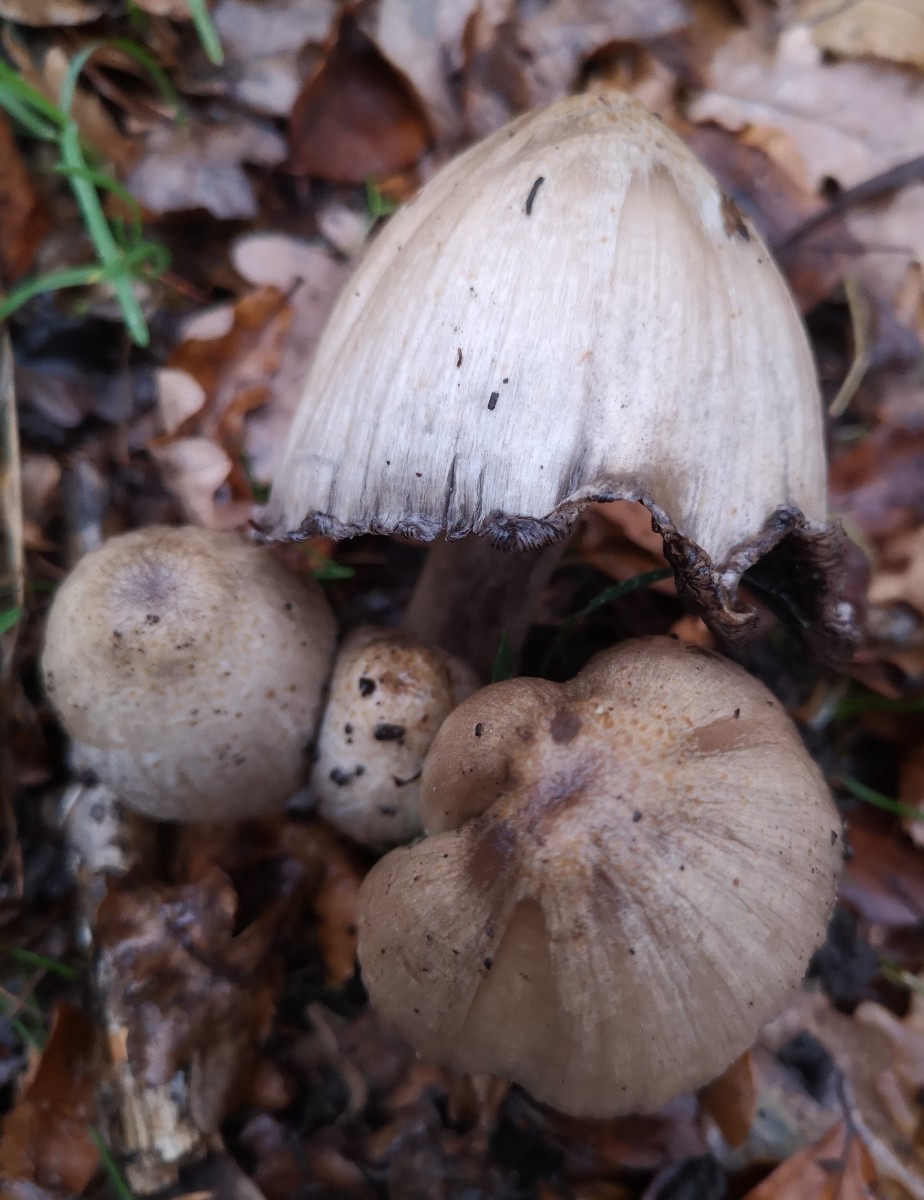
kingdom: Fungi
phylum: Basidiomycota
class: Agaricomycetes
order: Agaricales
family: Psathyrellaceae
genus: Coprinopsis
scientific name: Coprinopsis atramentaria
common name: almindelig blækhat
